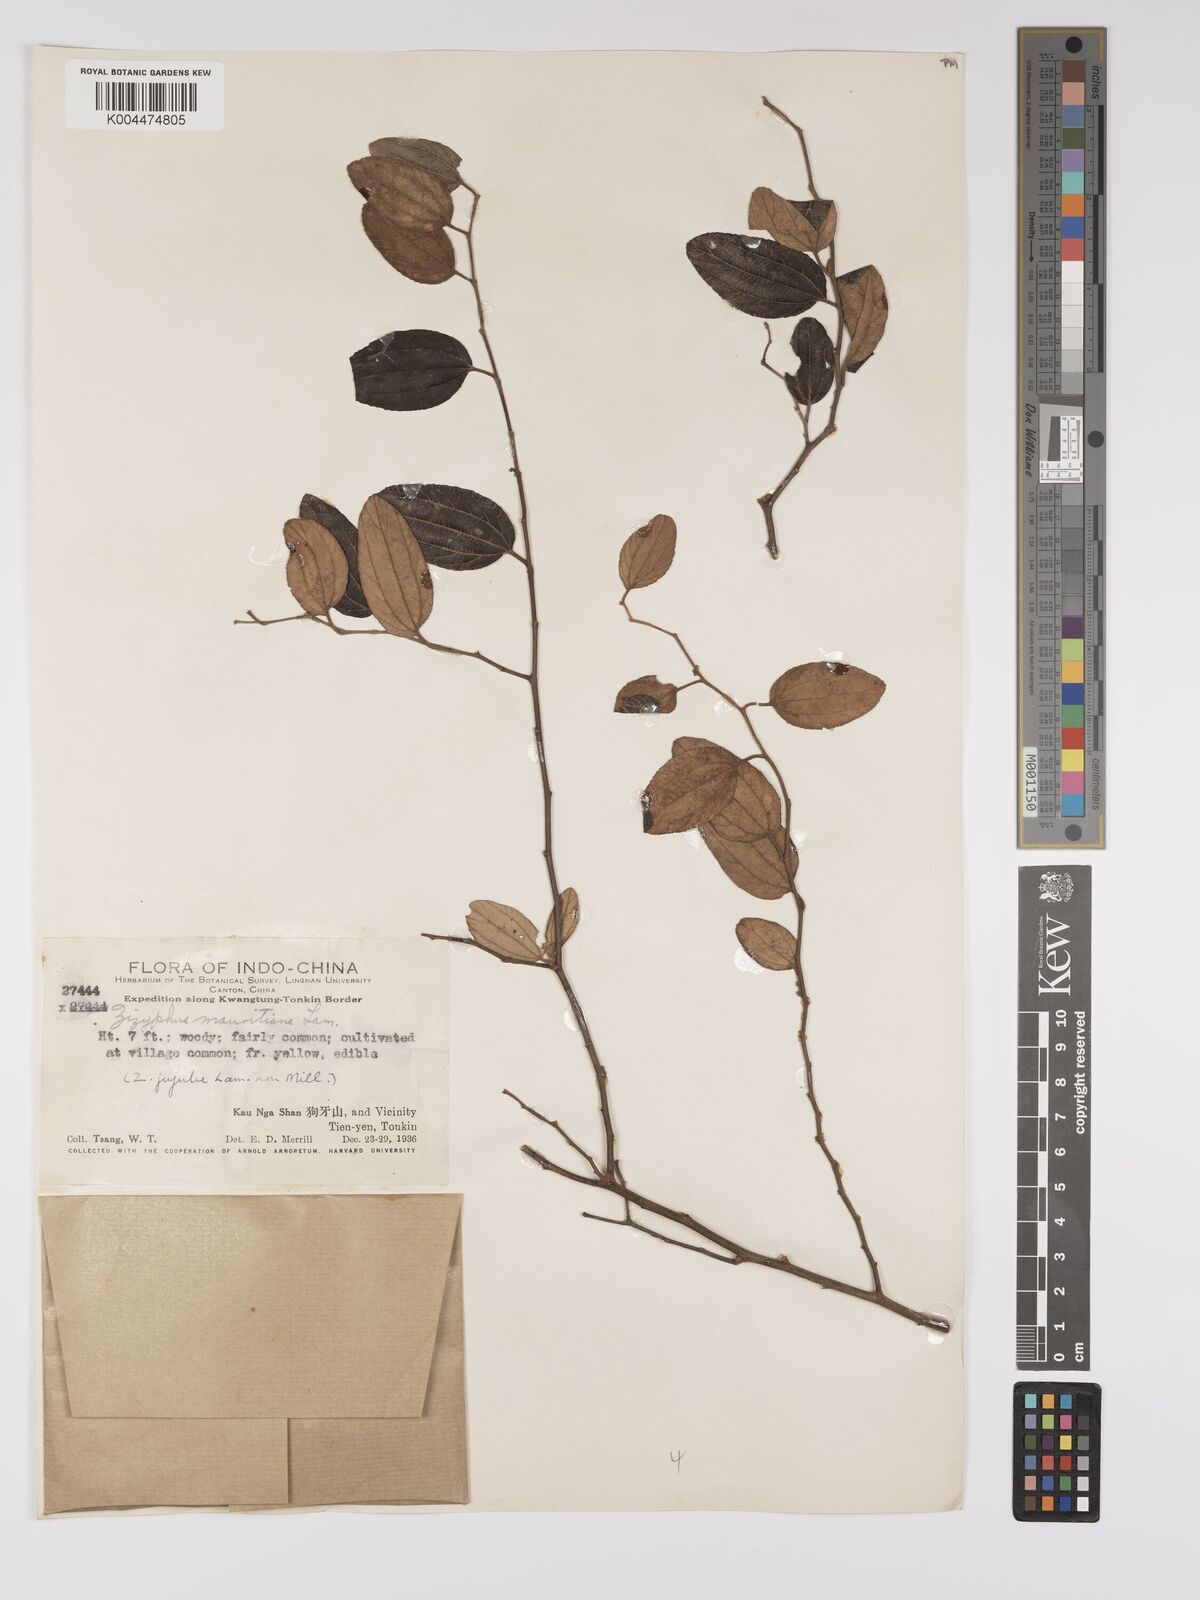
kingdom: Plantae
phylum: Tracheophyta
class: Magnoliopsida
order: Rosales
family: Rhamnaceae
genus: Ziziphus
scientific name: Ziziphus mauritiana
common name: Indian jujube
